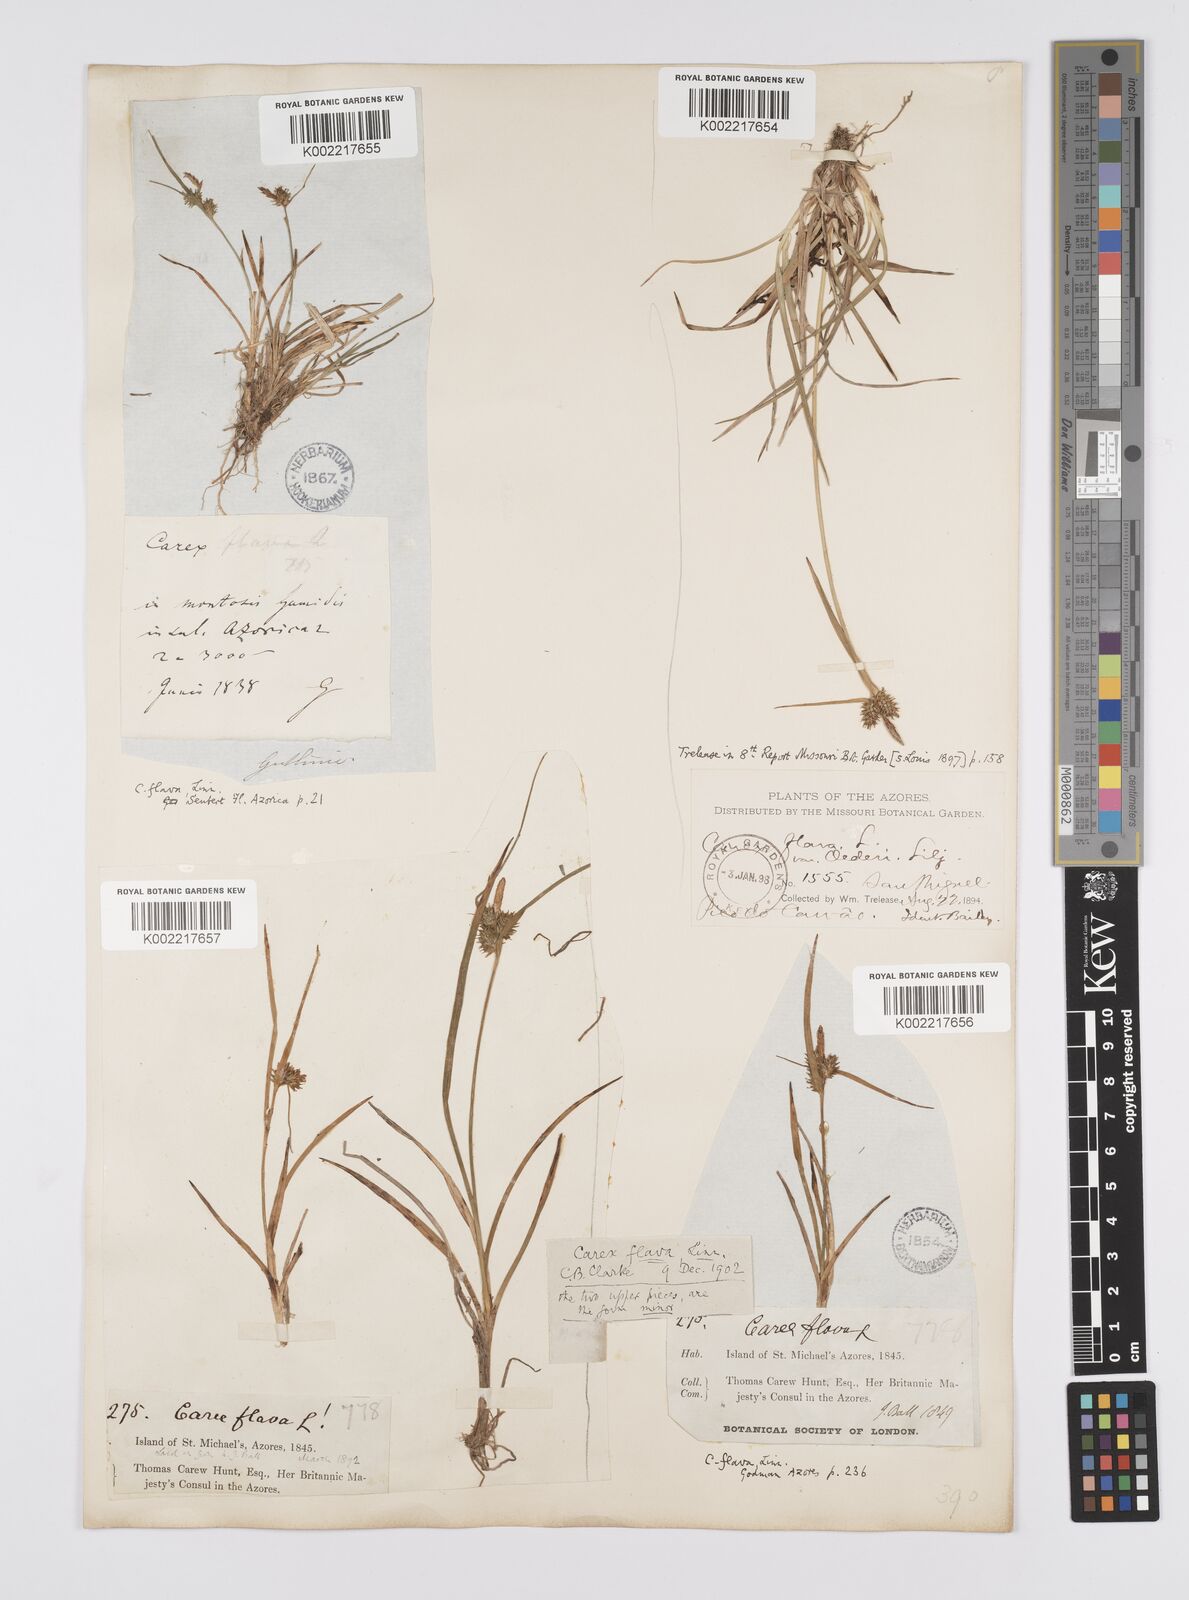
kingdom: Plantae
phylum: Tracheophyta
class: Liliopsida
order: Poales
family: Cyperaceae
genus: Carex
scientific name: Carex
